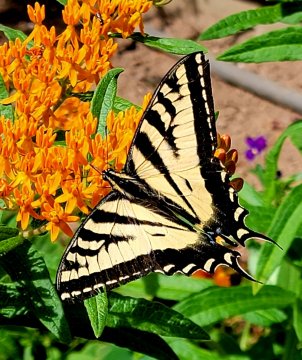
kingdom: Animalia
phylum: Arthropoda
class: Insecta
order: Lepidoptera
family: Papilionidae
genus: Pterourus
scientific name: Pterourus rutulus
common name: Western Tiger Swallowtail
